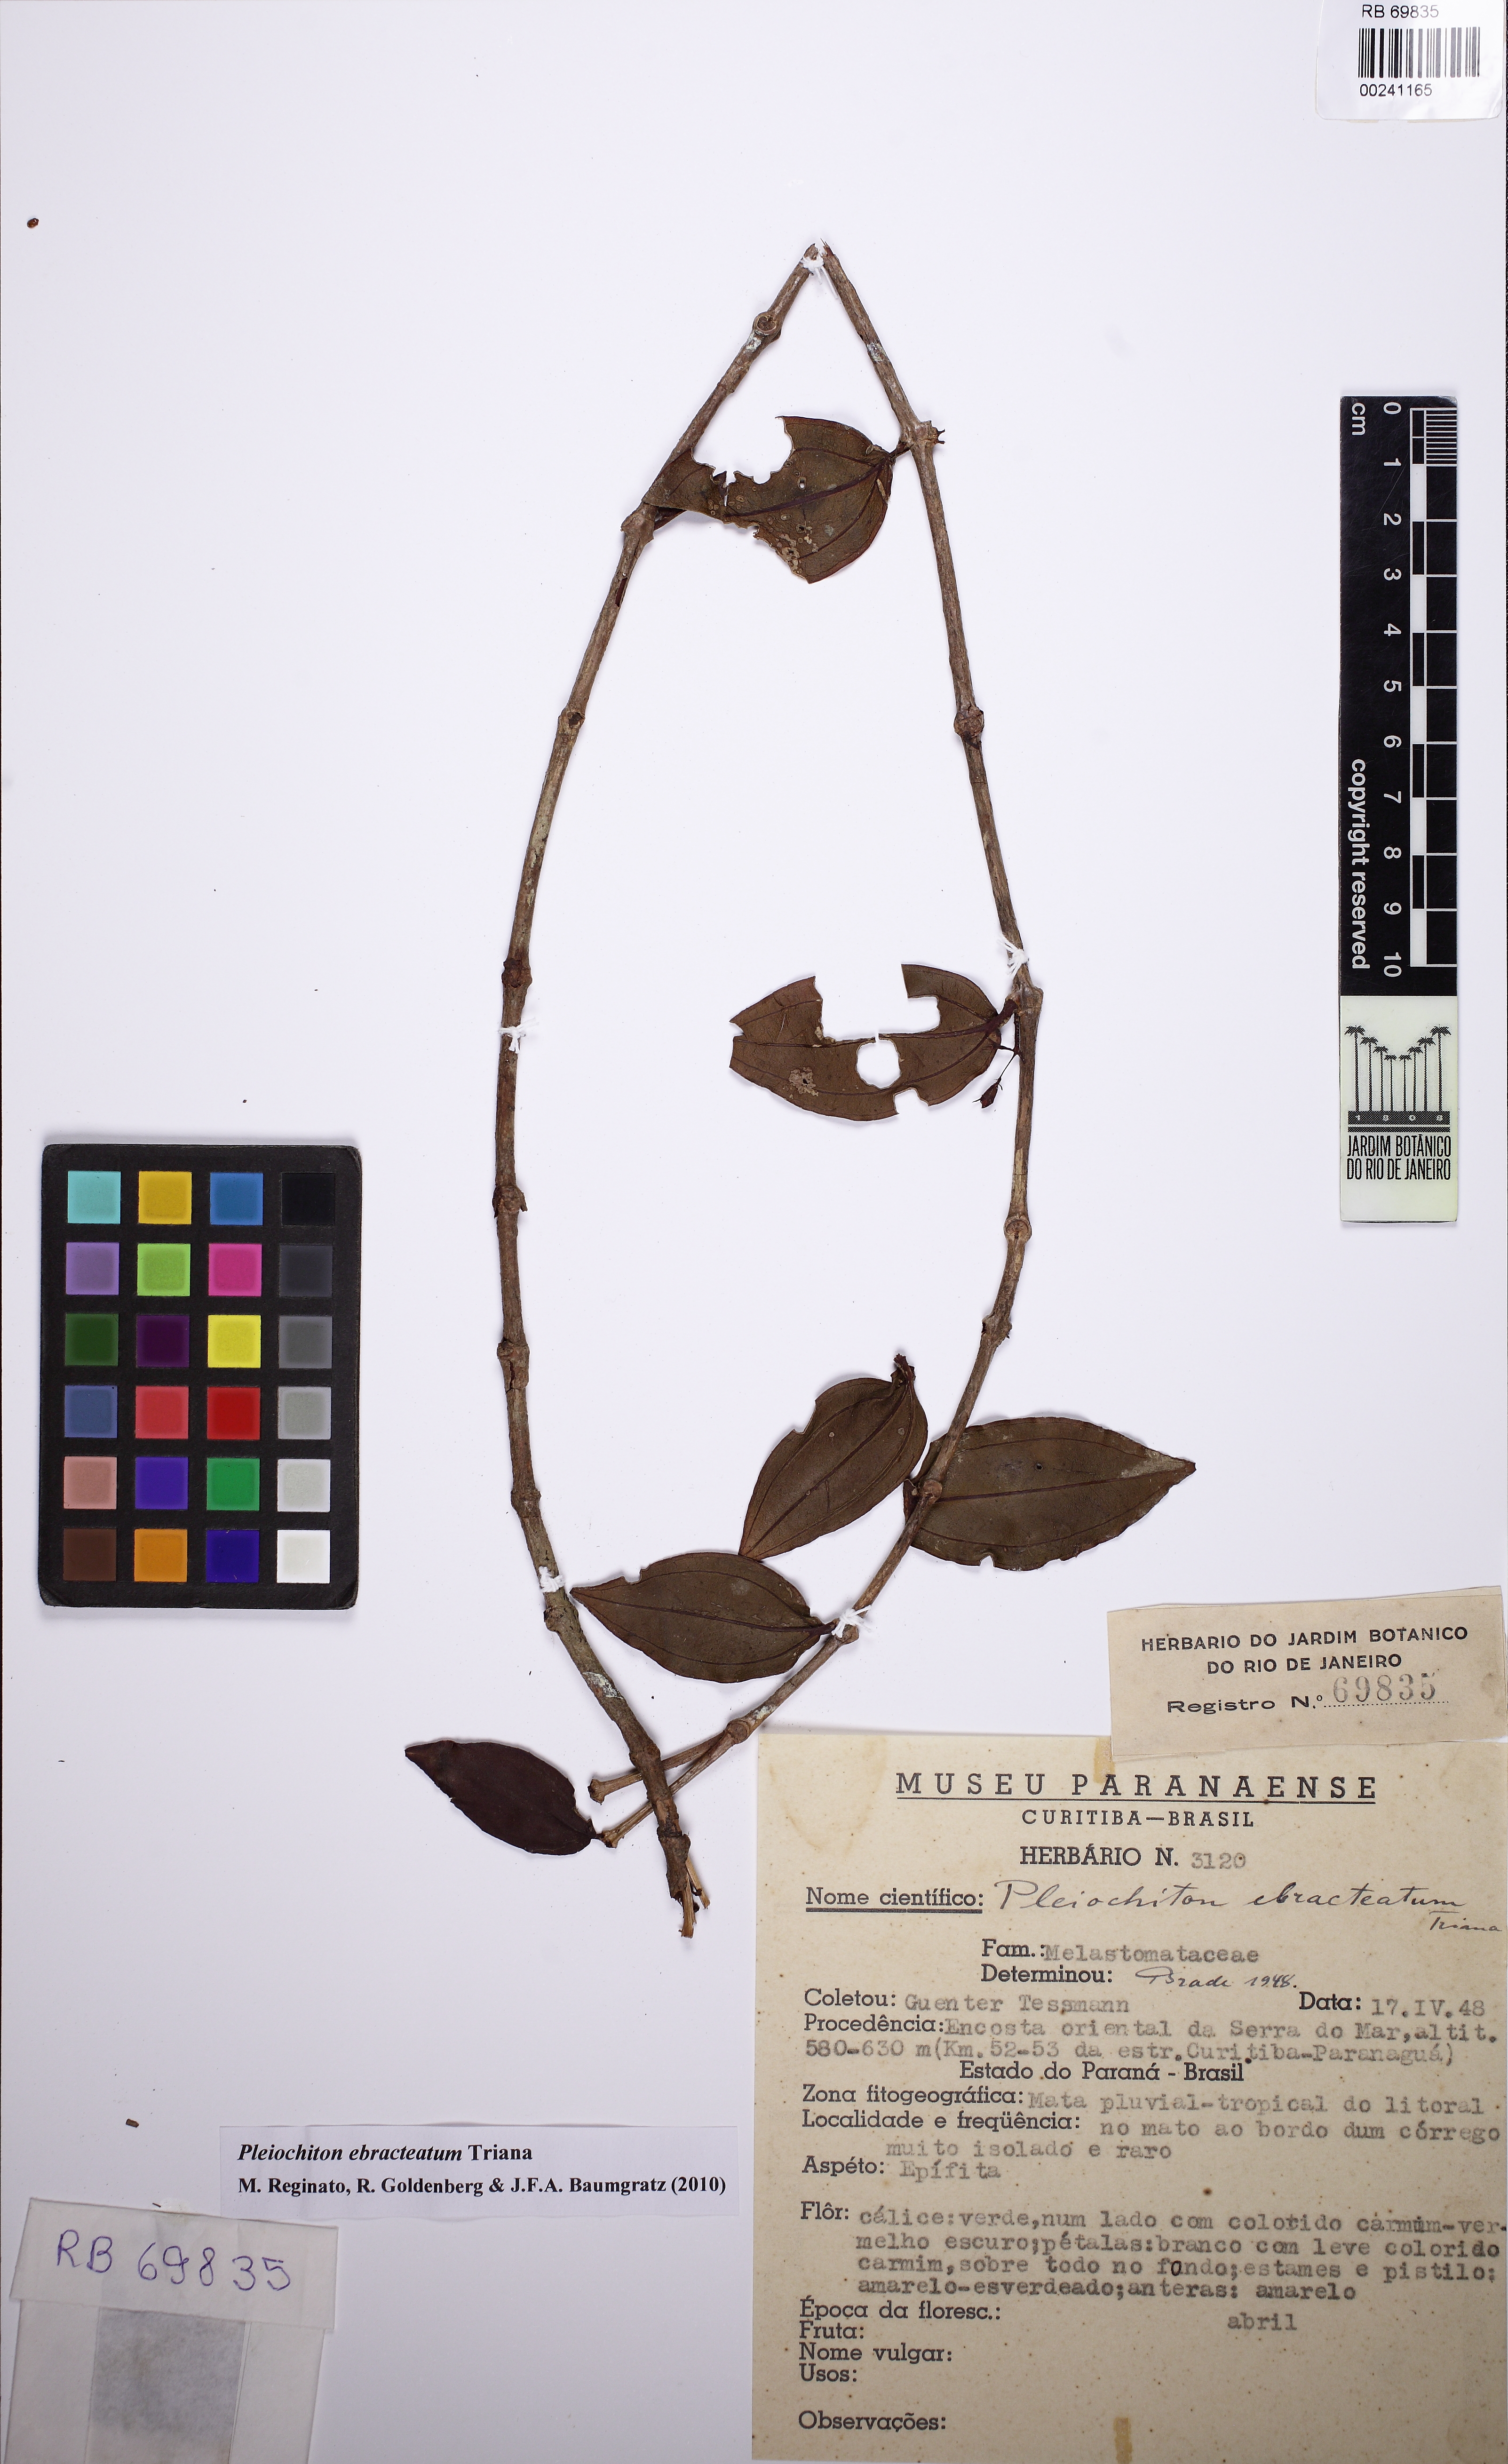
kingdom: Plantae
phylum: Tracheophyta
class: Magnoliopsida
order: Myrtales
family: Melastomataceae
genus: Miconia
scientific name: Miconia ebracteata
